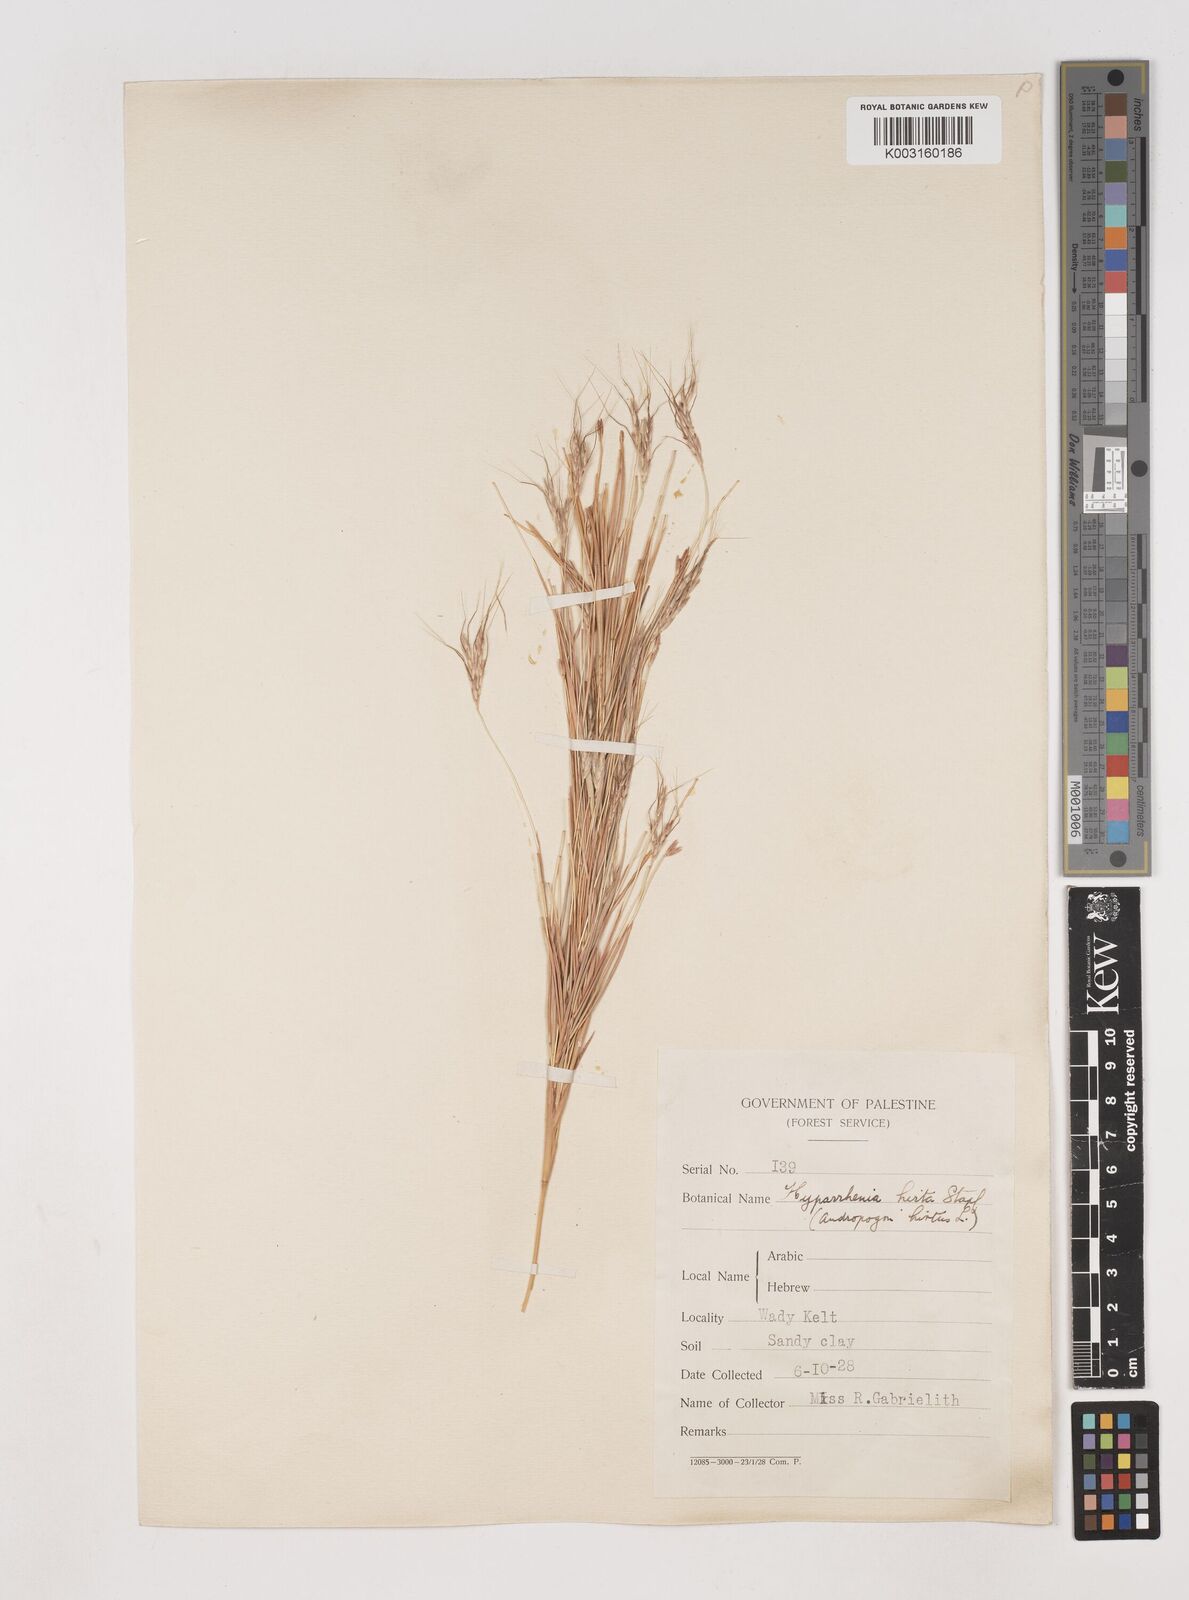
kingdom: Plantae
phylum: Tracheophyta
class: Liliopsida
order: Poales
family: Poaceae
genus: Hyparrhenia
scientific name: Hyparrhenia hirta
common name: Thatching grass
